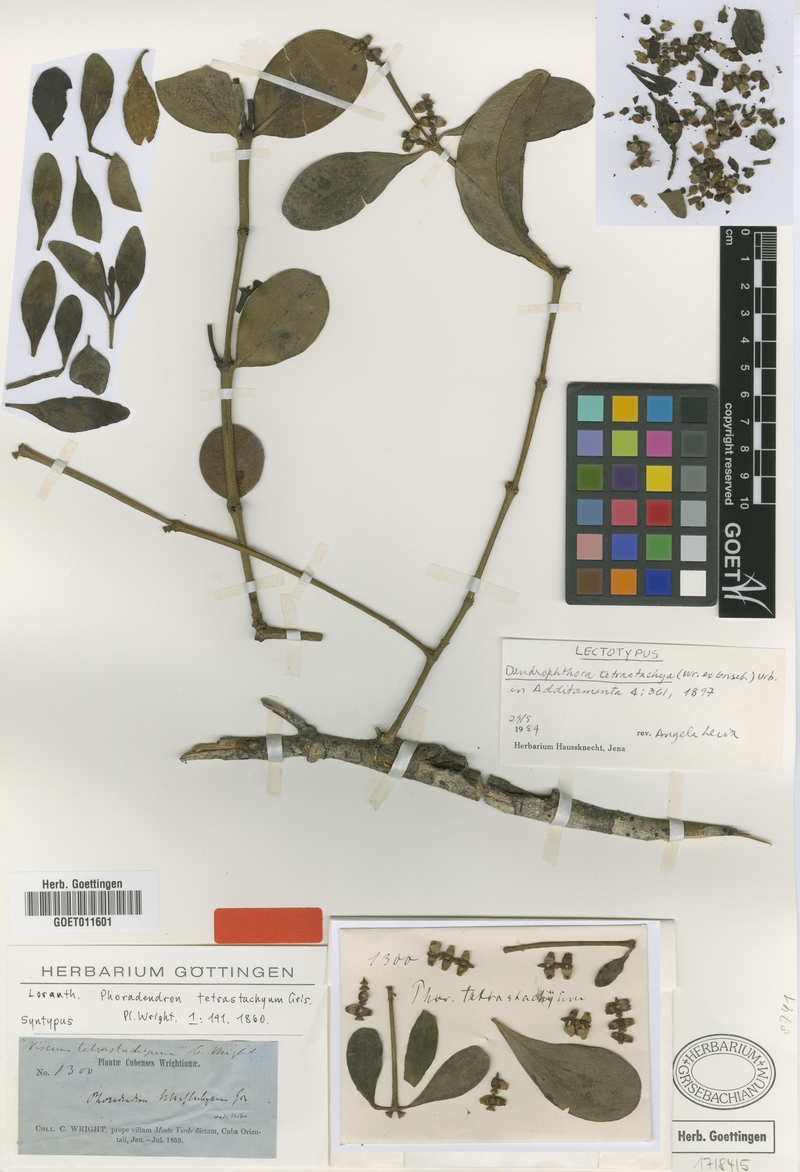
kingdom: Plantae
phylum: Tracheophyta
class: Magnoliopsida
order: Santalales
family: Viscaceae
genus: Dendrophthora
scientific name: Dendrophthora tetrastachya
